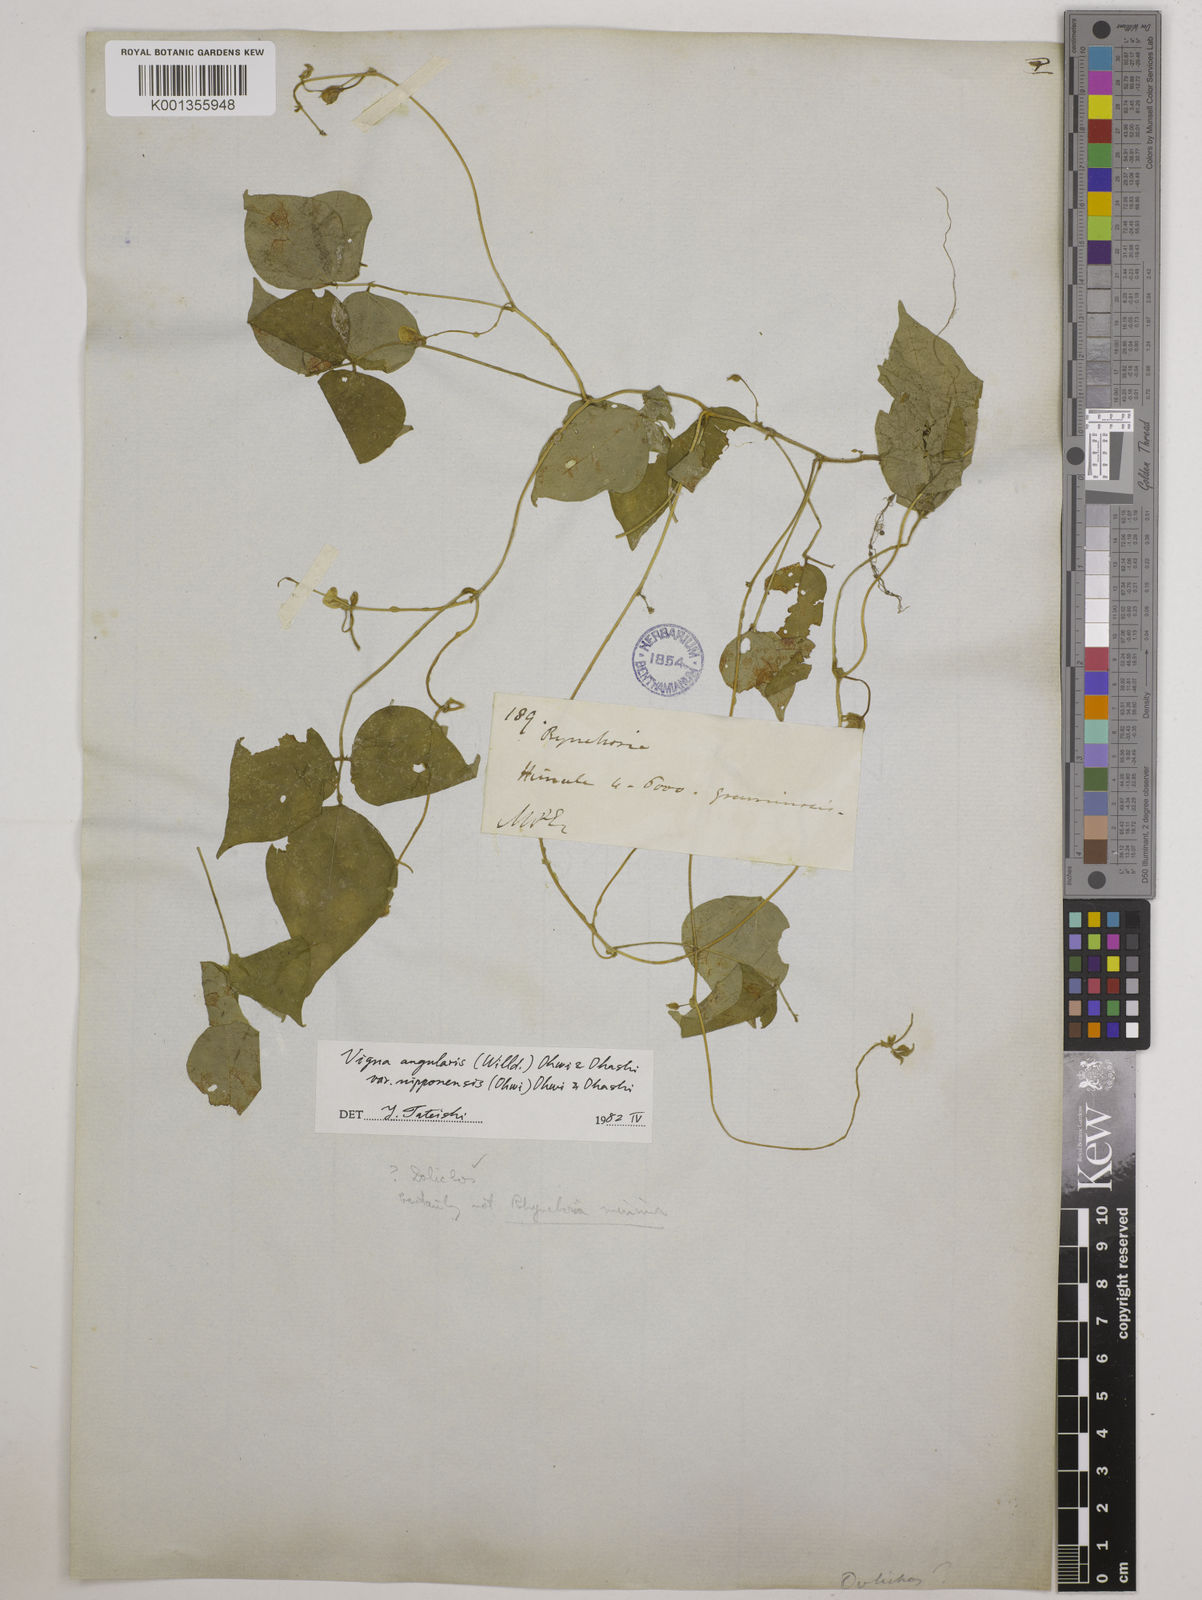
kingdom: Plantae
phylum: Tracheophyta
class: Magnoliopsida
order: Fabales
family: Fabaceae
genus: Vigna
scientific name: Vigna
